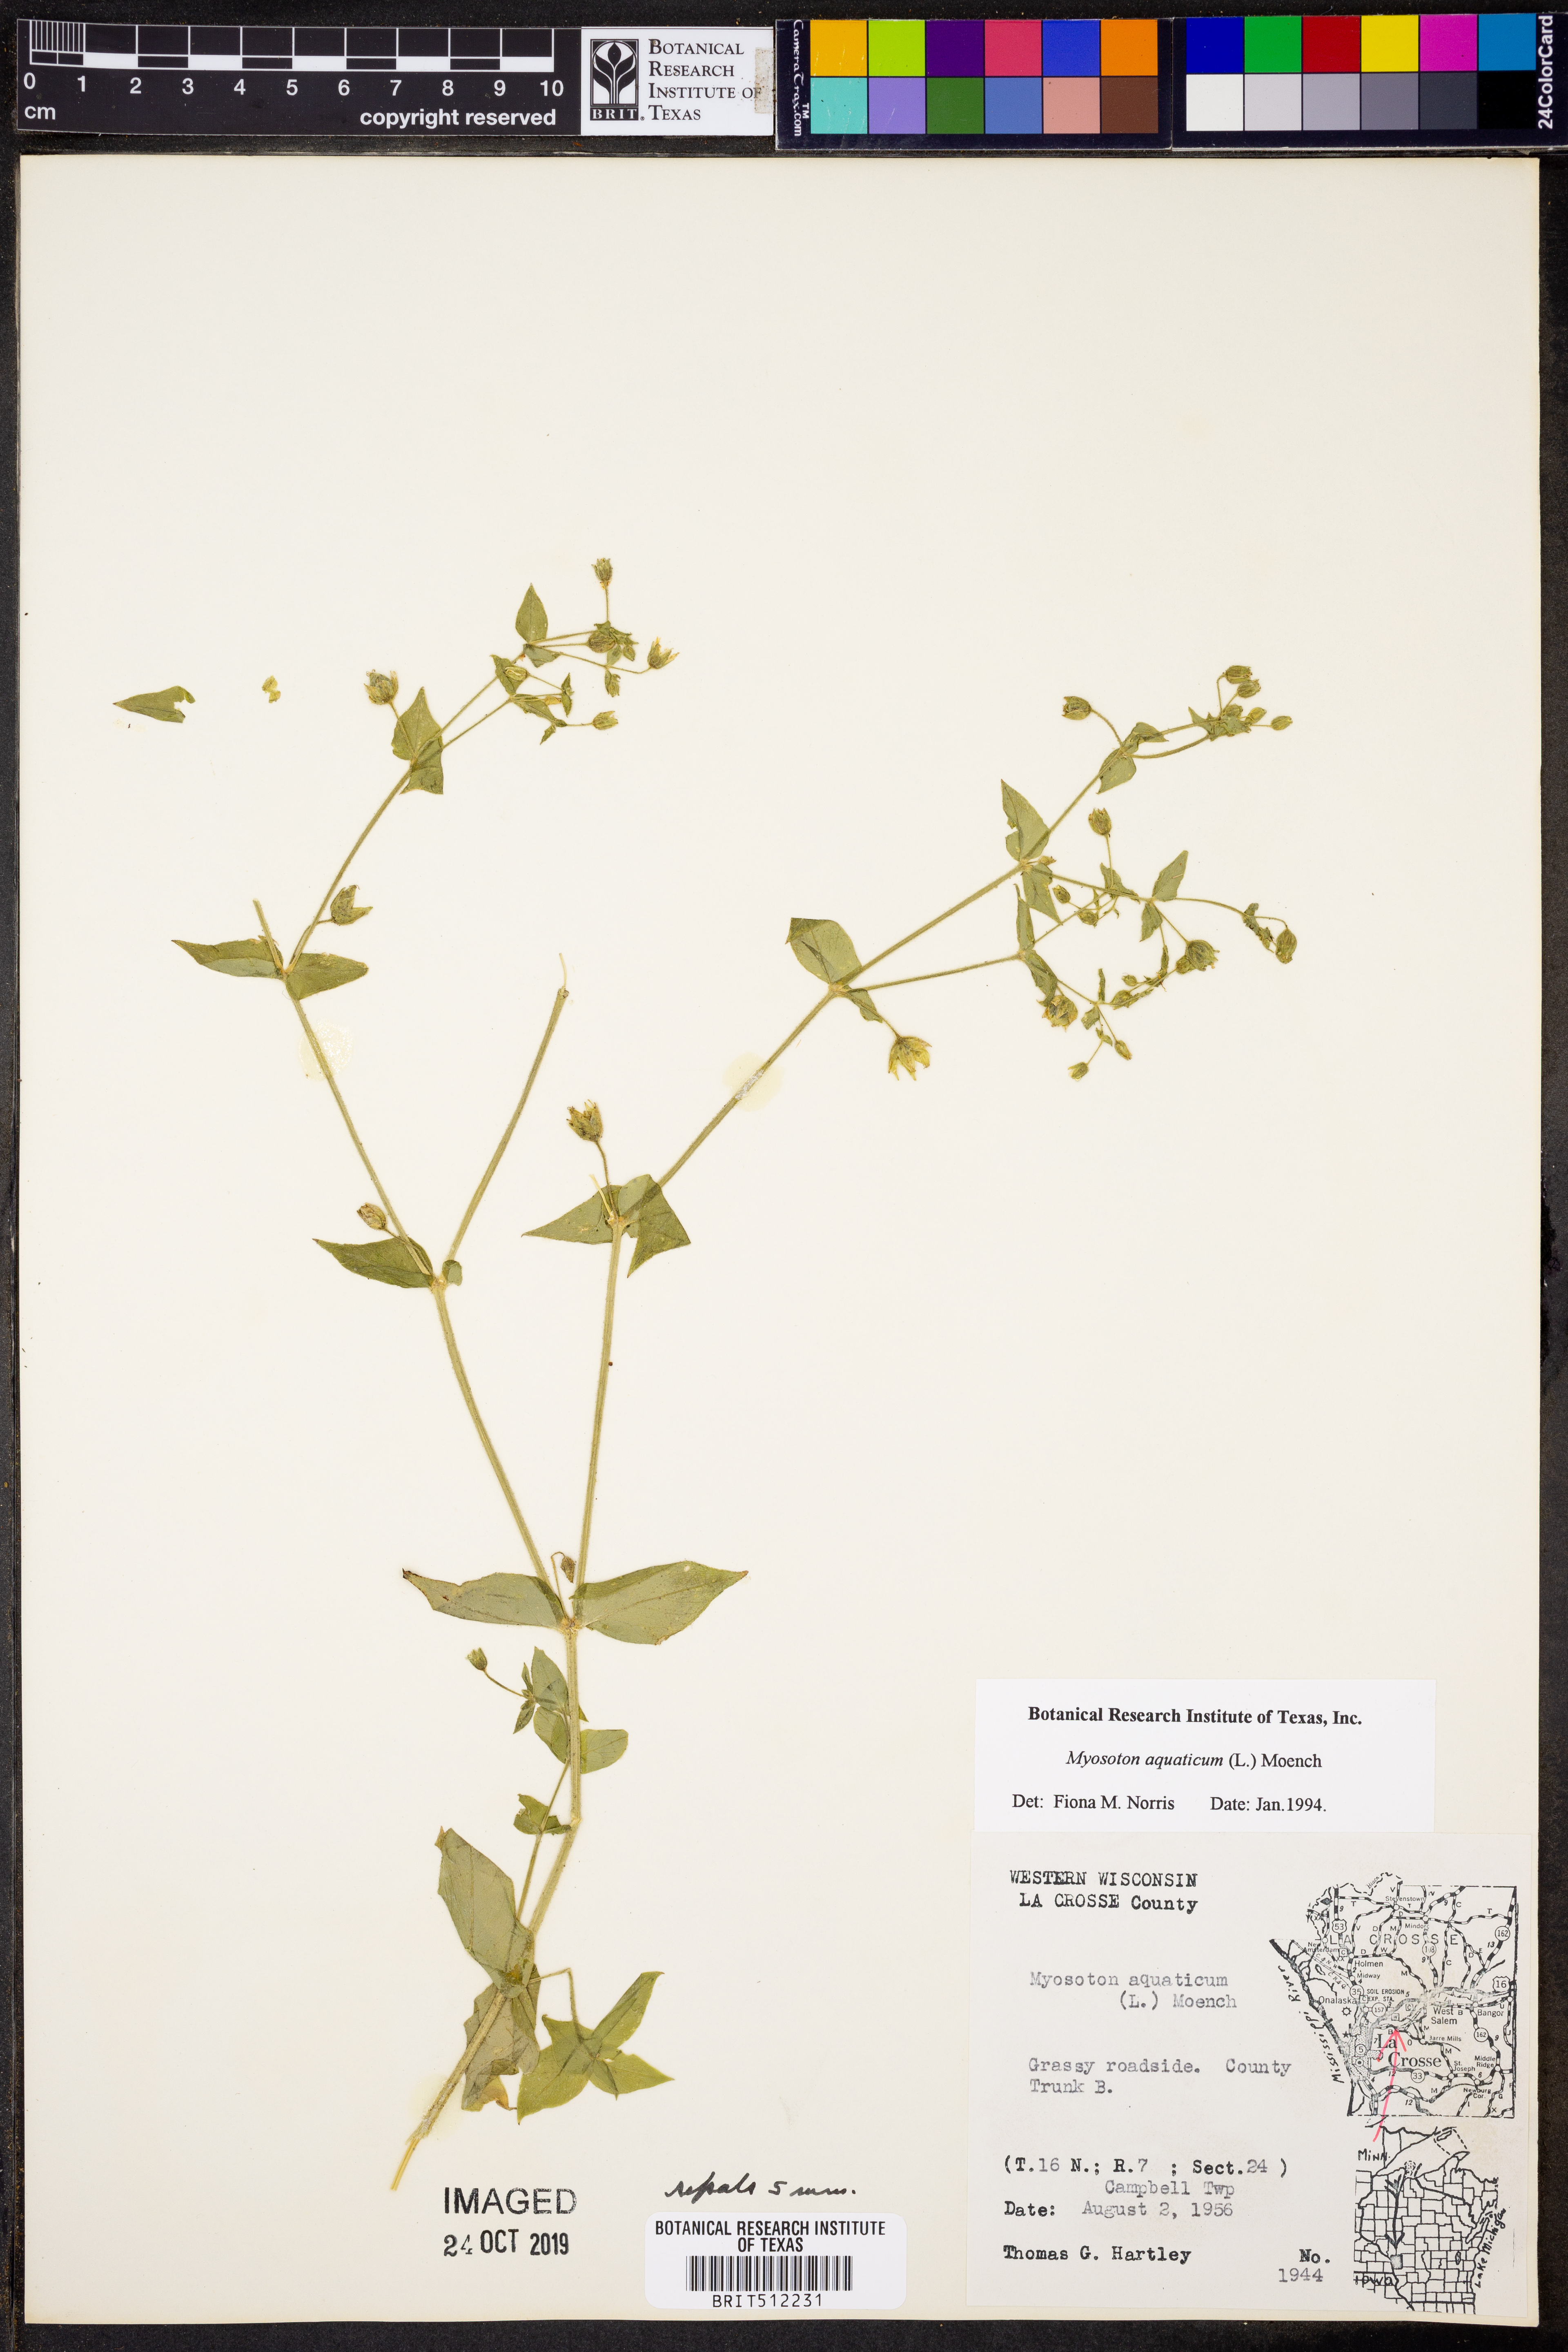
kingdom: Plantae
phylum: Tracheophyta
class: Magnoliopsida
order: Caryophyllales
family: Caryophyllaceae
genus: Stellaria
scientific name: Stellaria aquatica
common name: Water chickweed
